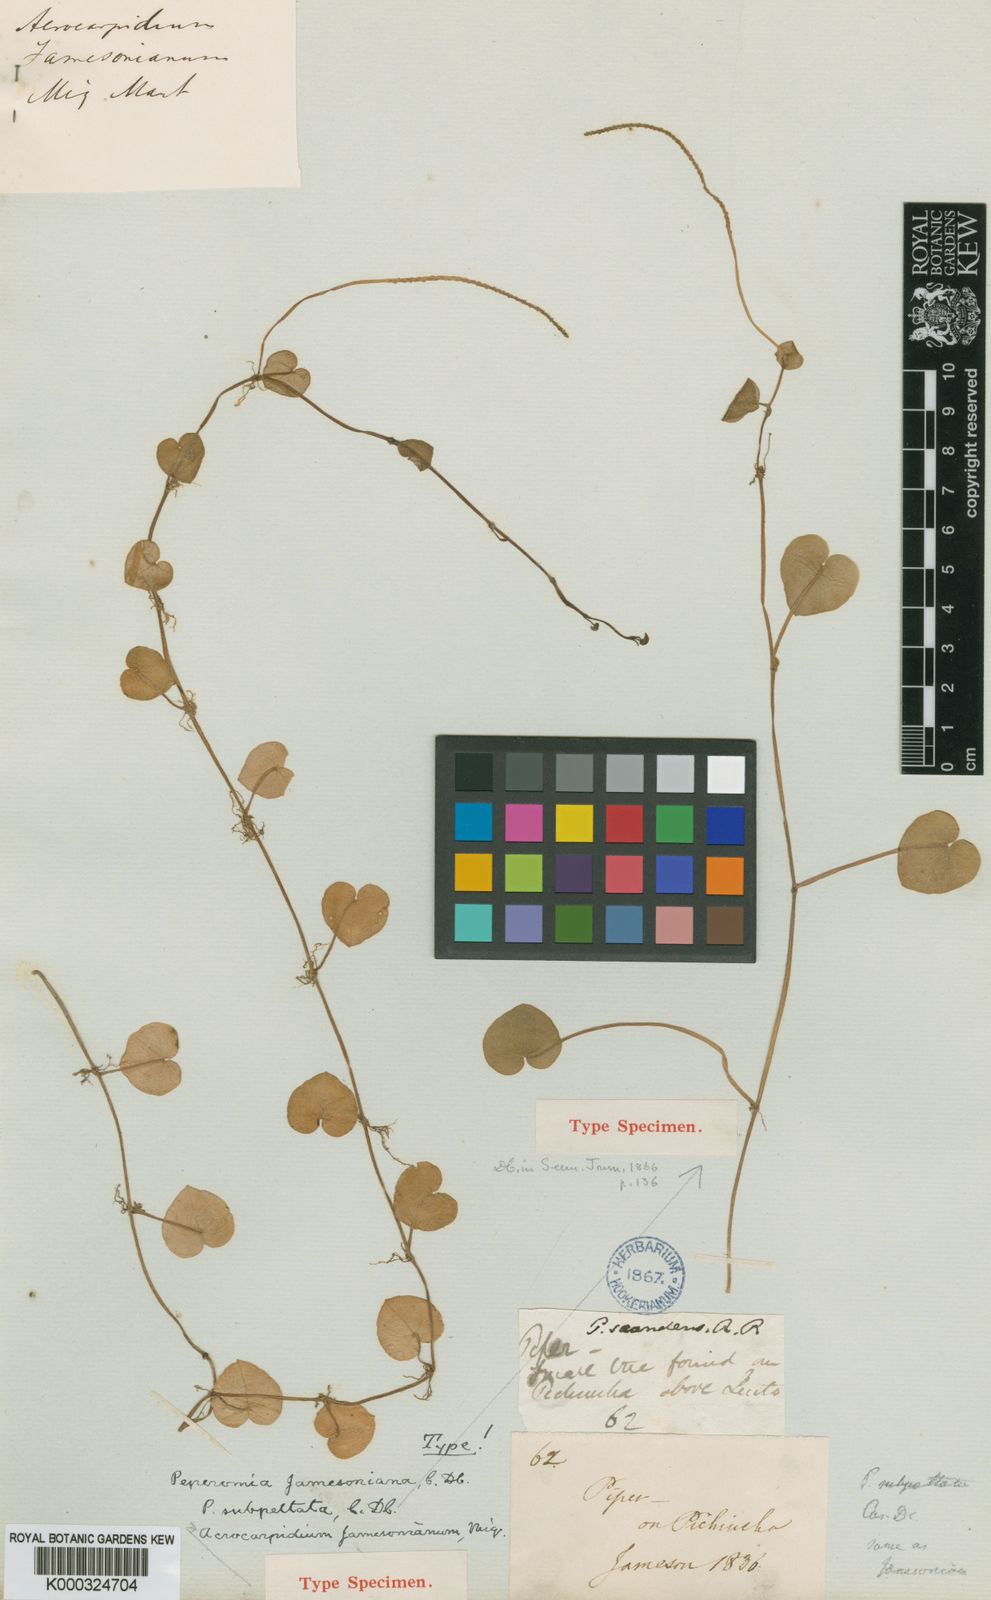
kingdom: Plantae
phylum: Tracheophyta
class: Magnoliopsida
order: Piperales
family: Piperaceae
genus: Peperomia
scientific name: Peperomia jamesoniana
